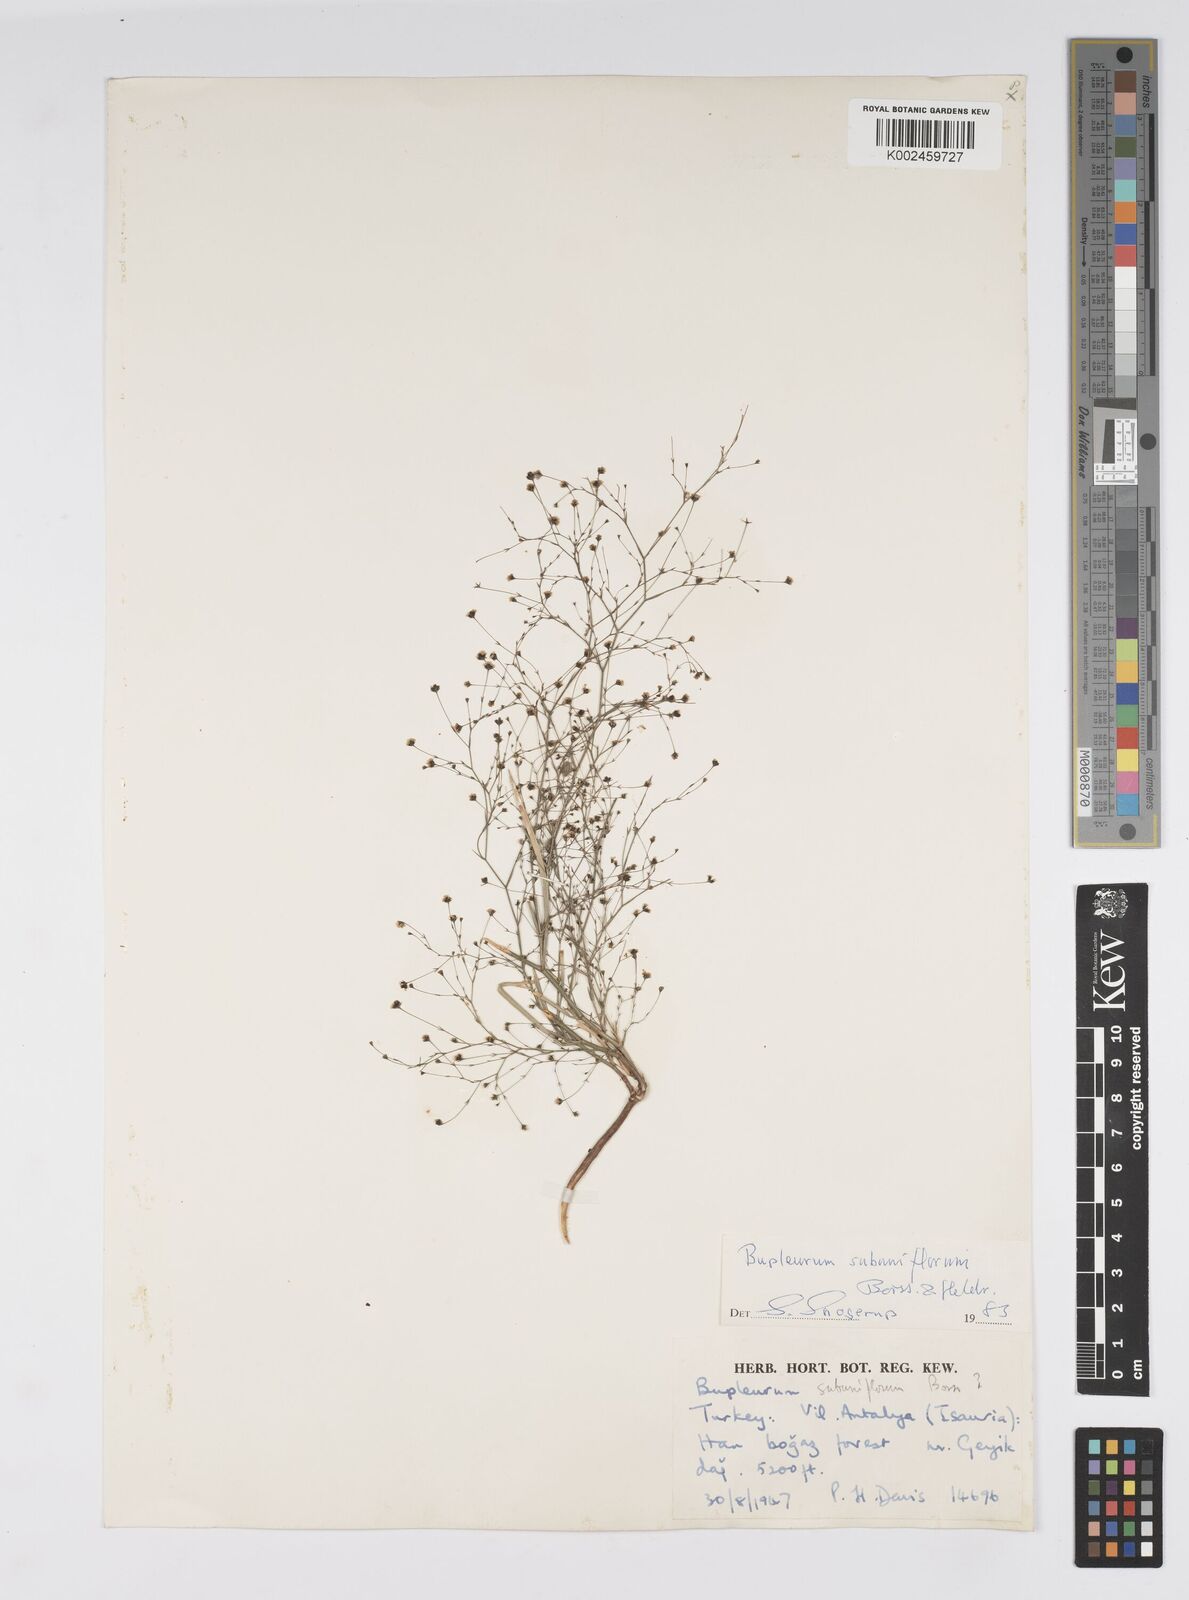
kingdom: Plantae
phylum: Tracheophyta
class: Magnoliopsida
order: Apiales
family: Apiaceae
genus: Bupleurum
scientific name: Bupleurum subuniflorum
